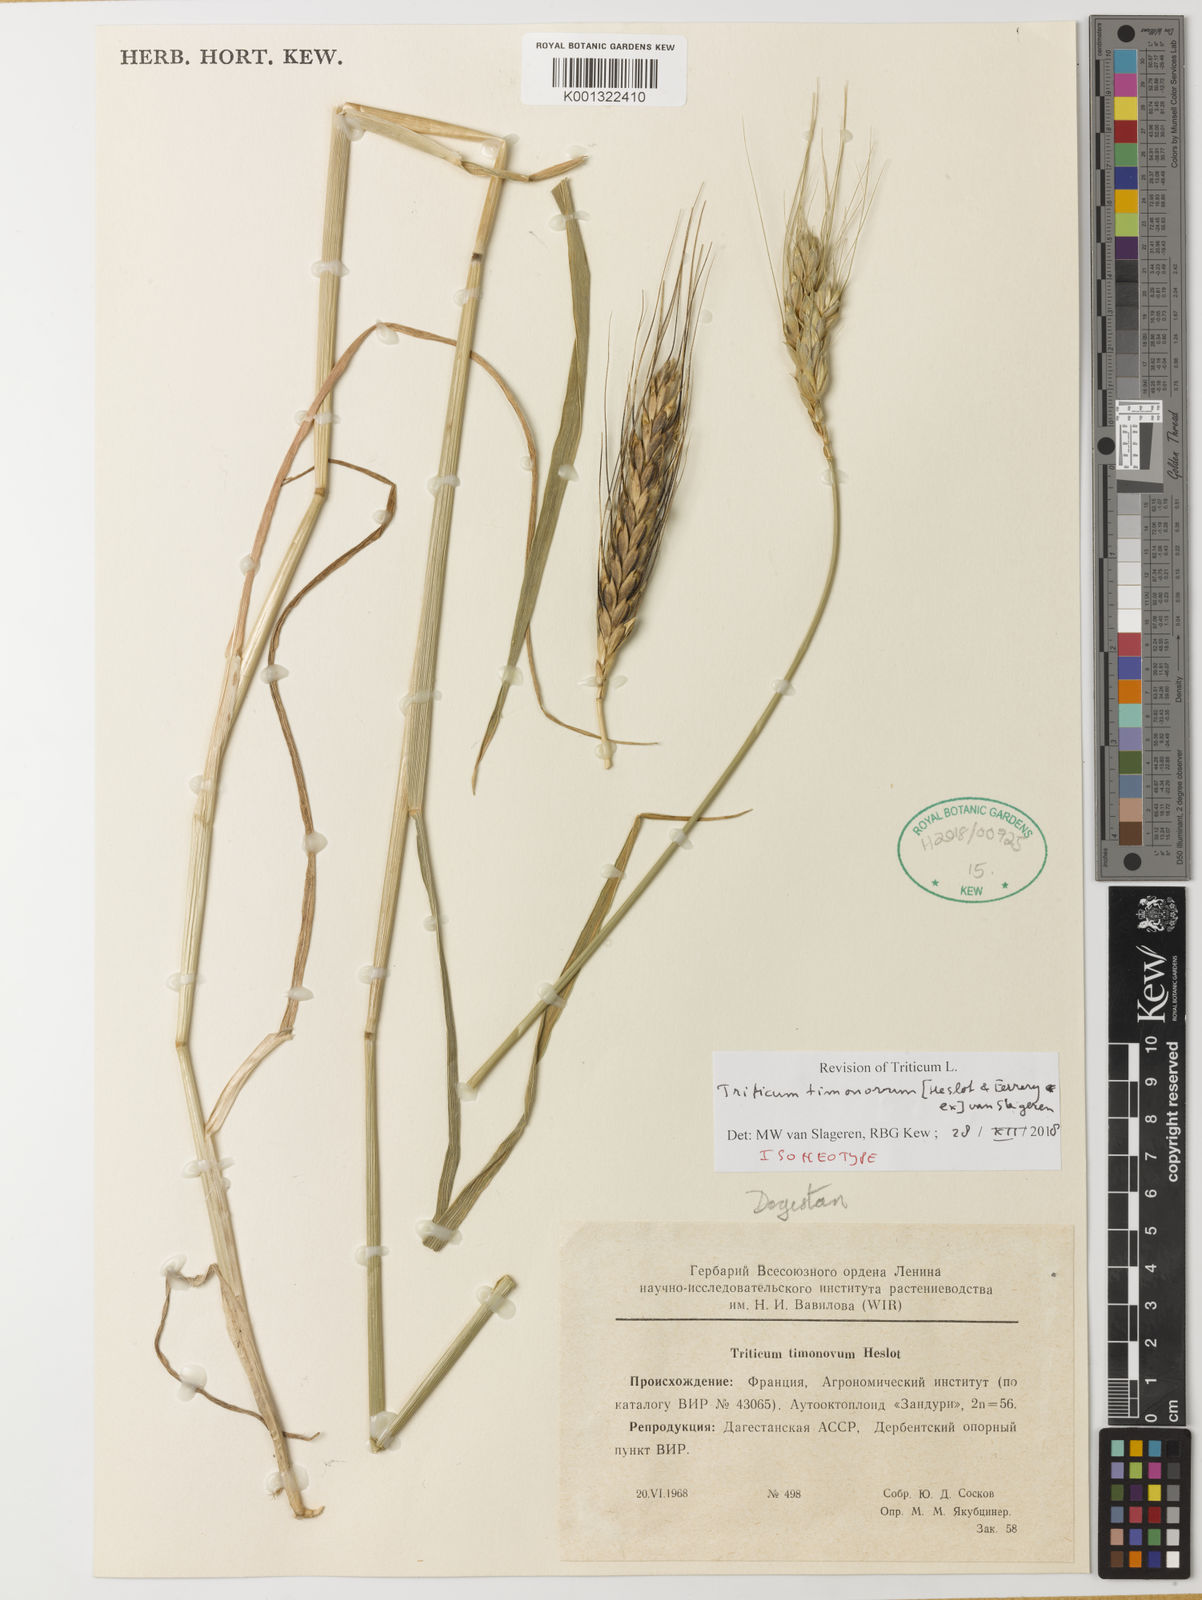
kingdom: Plantae
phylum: Tracheophyta
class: Liliopsida
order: Poales
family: Poaceae
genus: Triticum
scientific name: Triticum timopheevii
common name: Timopheev's wheat
